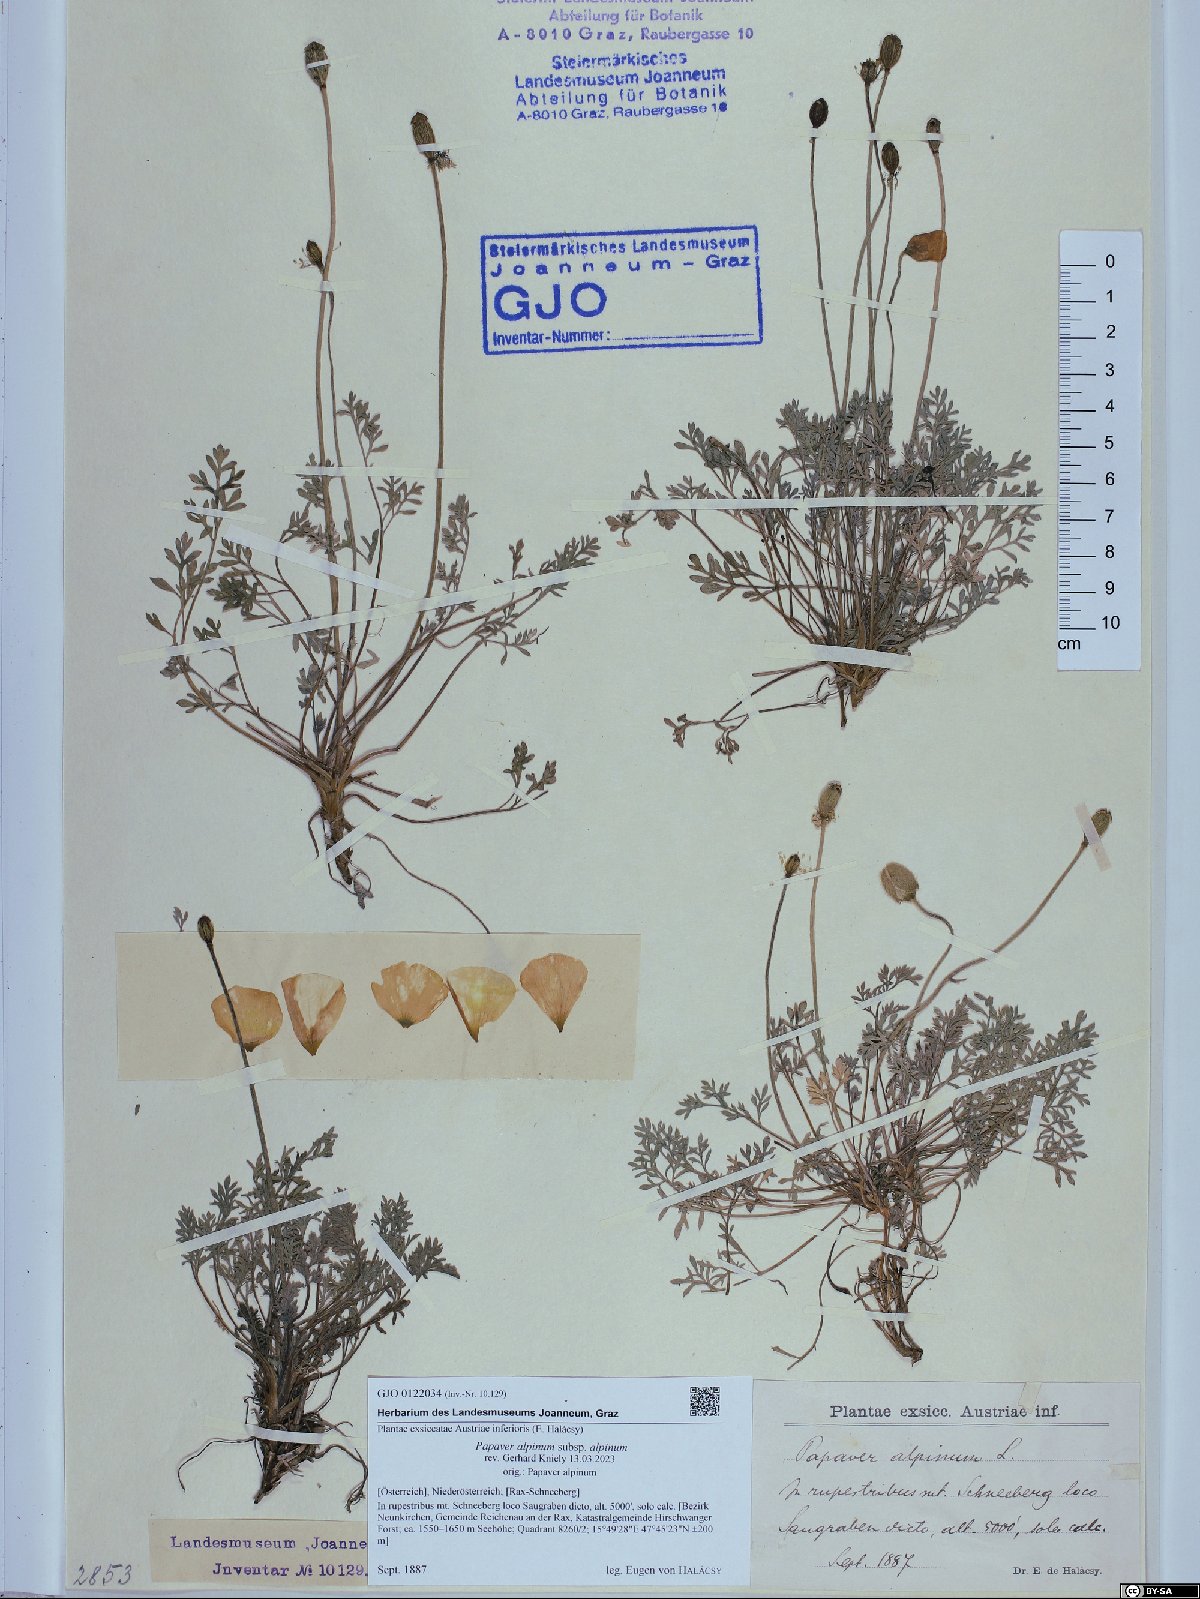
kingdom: Plantae
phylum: Tracheophyta
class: Magnoliopsida
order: Ranunculales
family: Papaveraceae
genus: Papaver
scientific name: Papaver alpinum
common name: Austrian poppy
